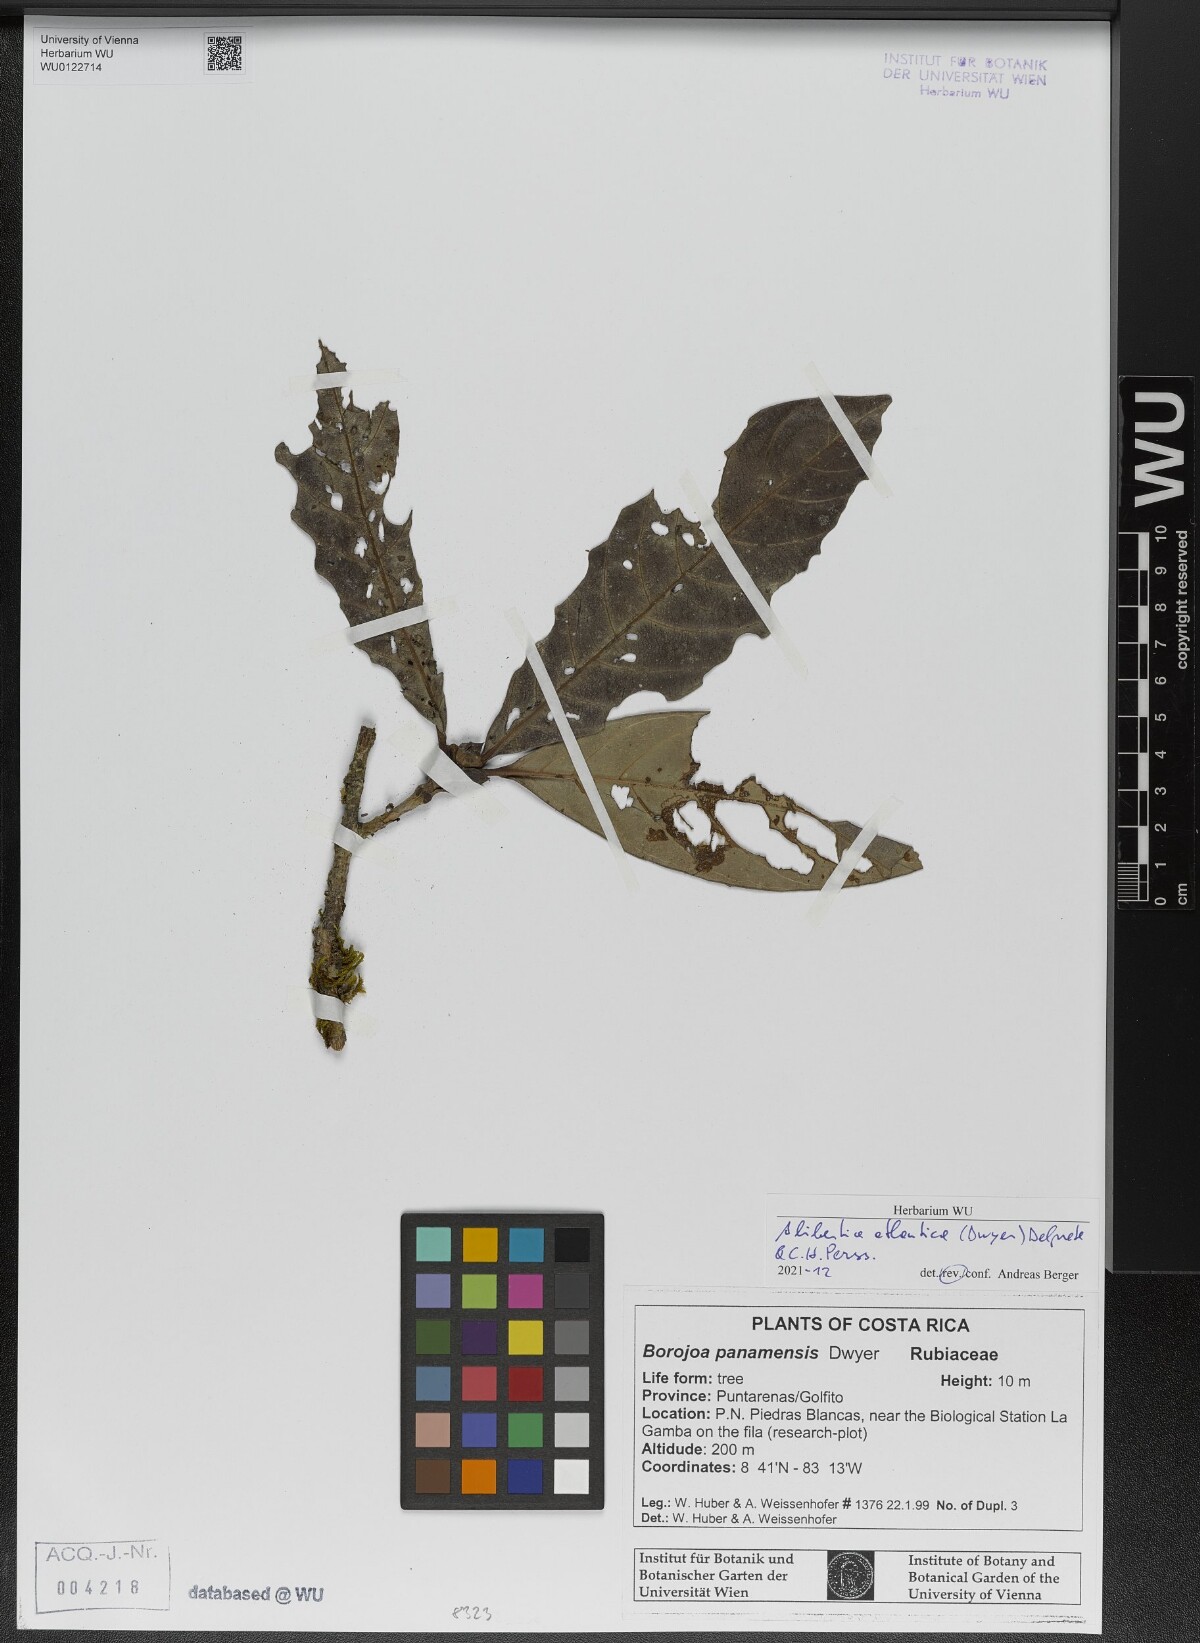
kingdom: Plantae
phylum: Tracheophyta
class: Magnoliopsida
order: Gentianales
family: Rubiaceae
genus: Alibertia
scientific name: Alibertia atlantica
